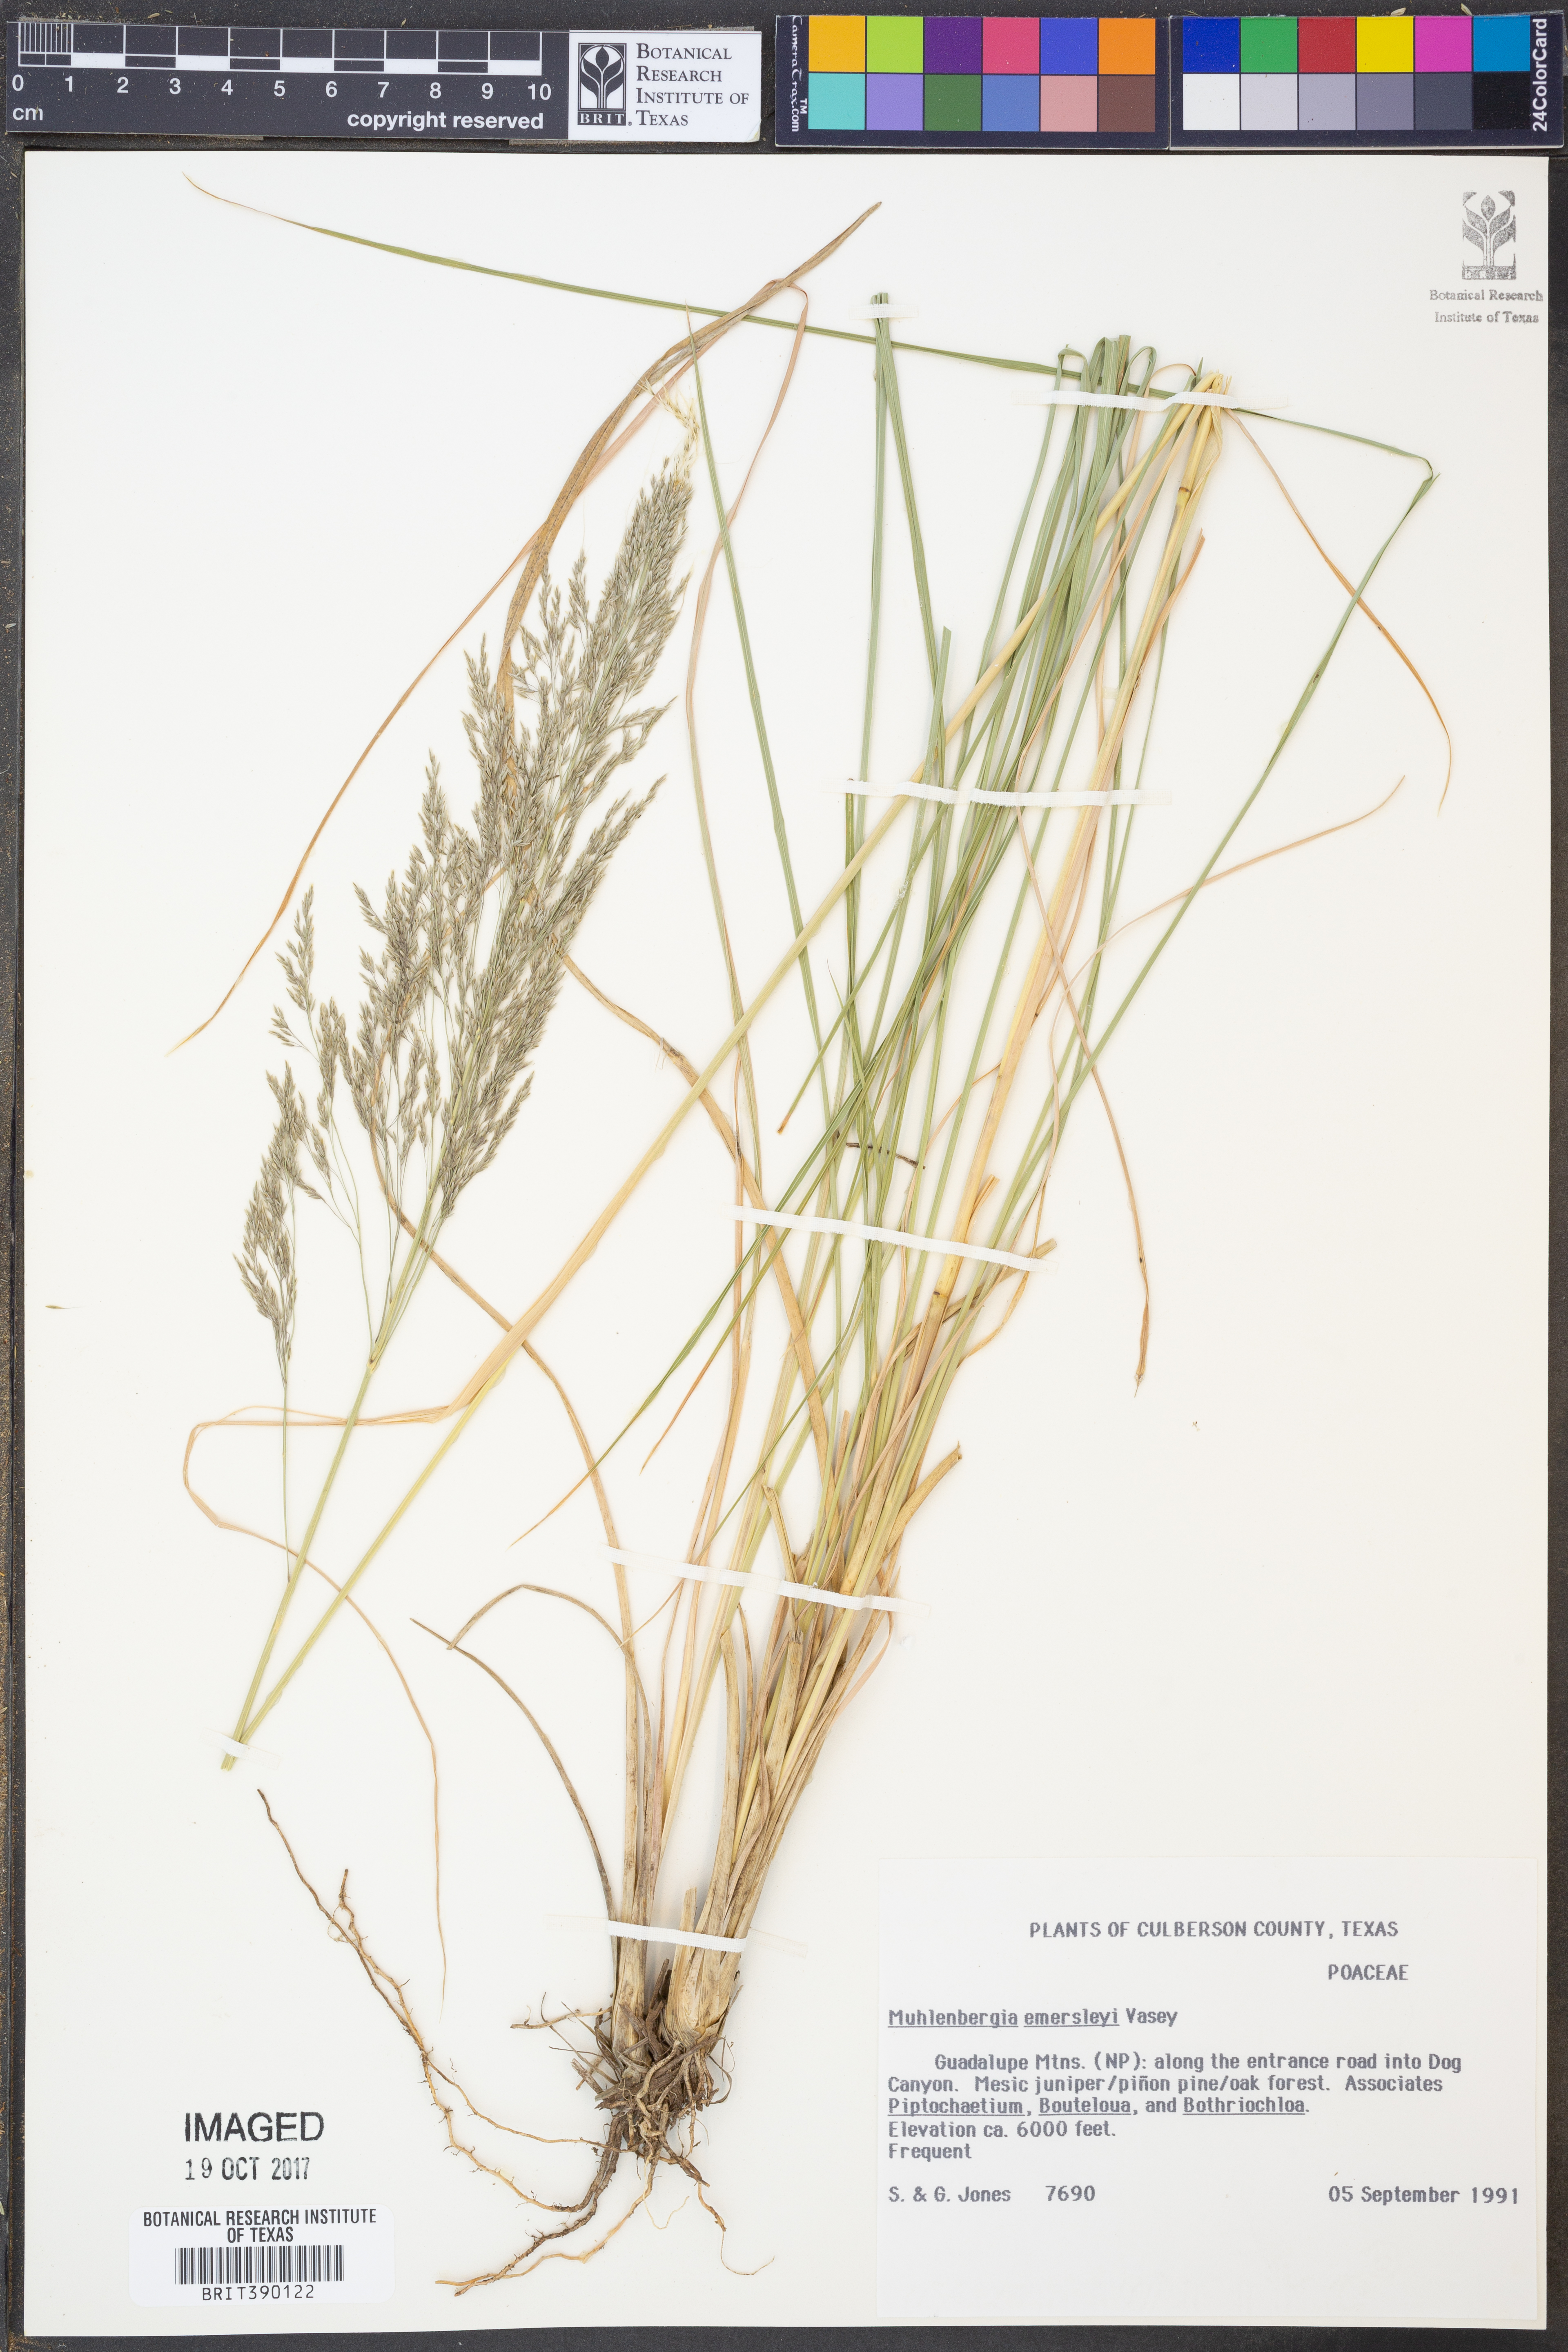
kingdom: Plantae
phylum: Tracheophyta
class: Liliopsida
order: Poales
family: Poaceae
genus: Muhlenbergia
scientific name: Muhlenbergia emersleyi
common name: Bull grass
